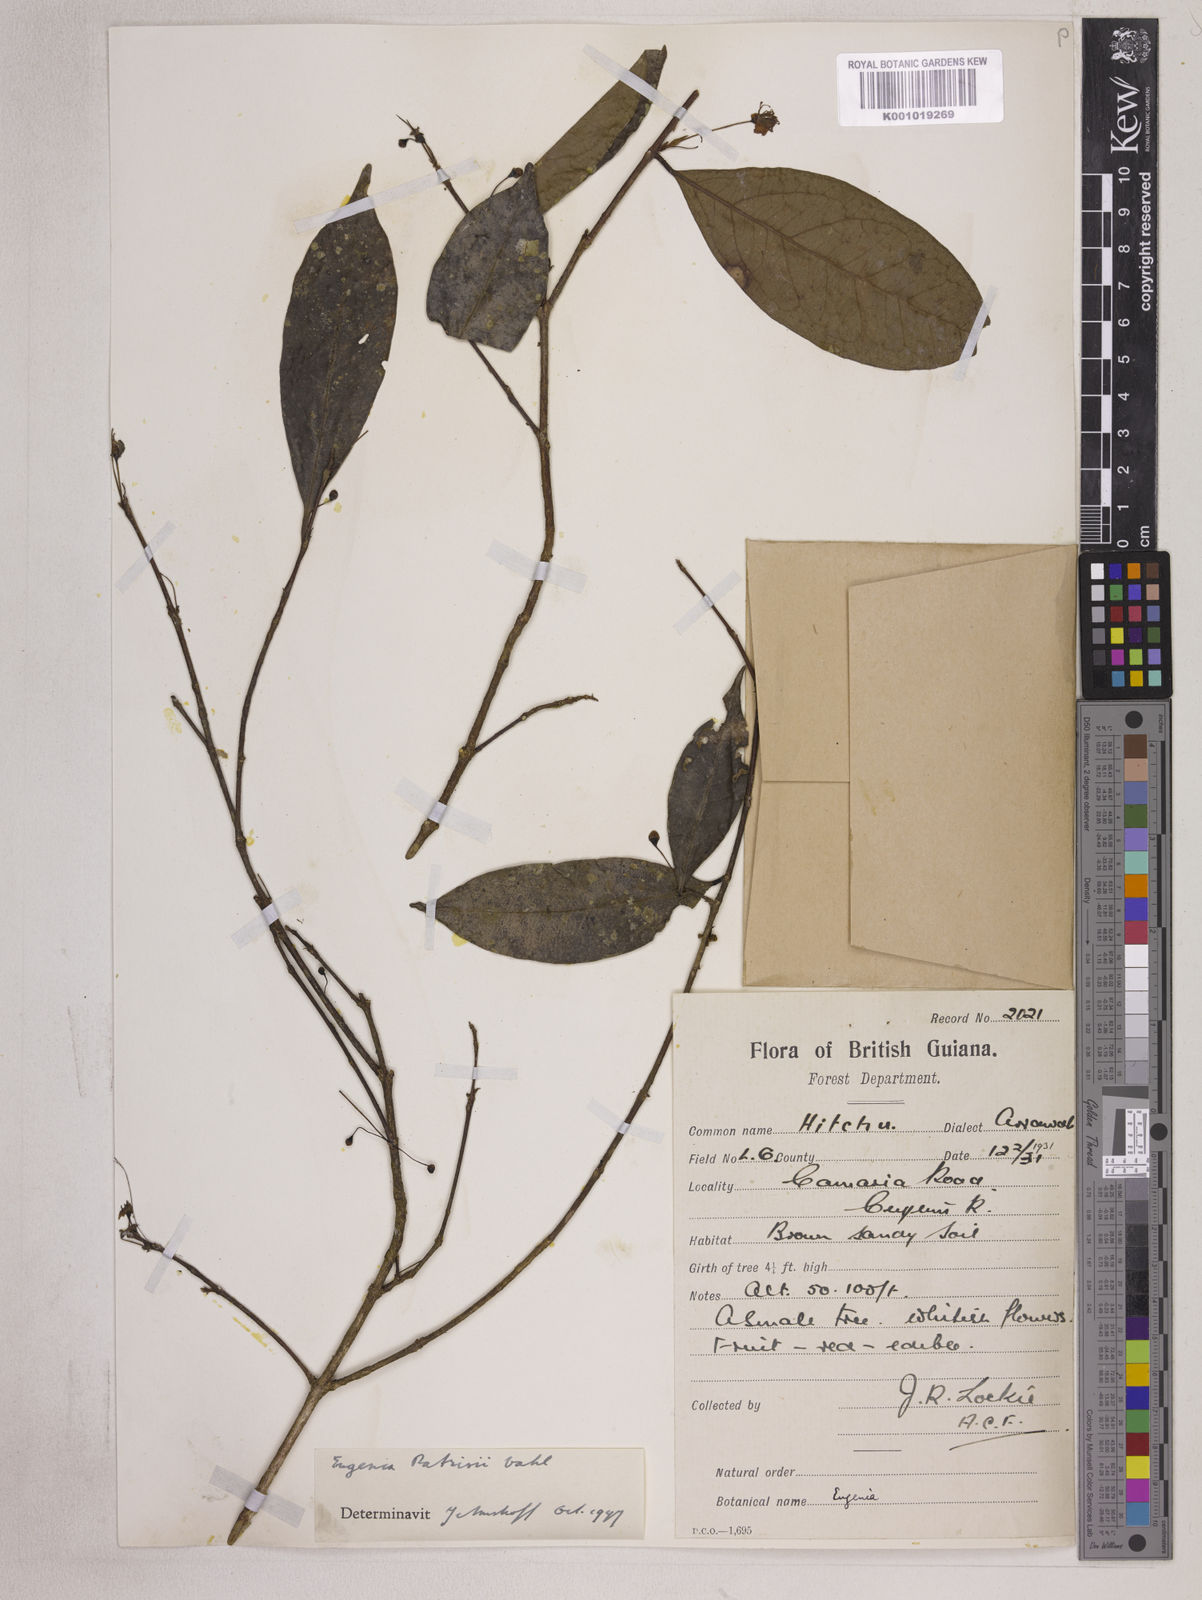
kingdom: Plantae
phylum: Tracheophyta
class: Magnoliopsida
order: Myrtales
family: Myrtaceae
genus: Eugenia
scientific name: Eugenia patrisii
